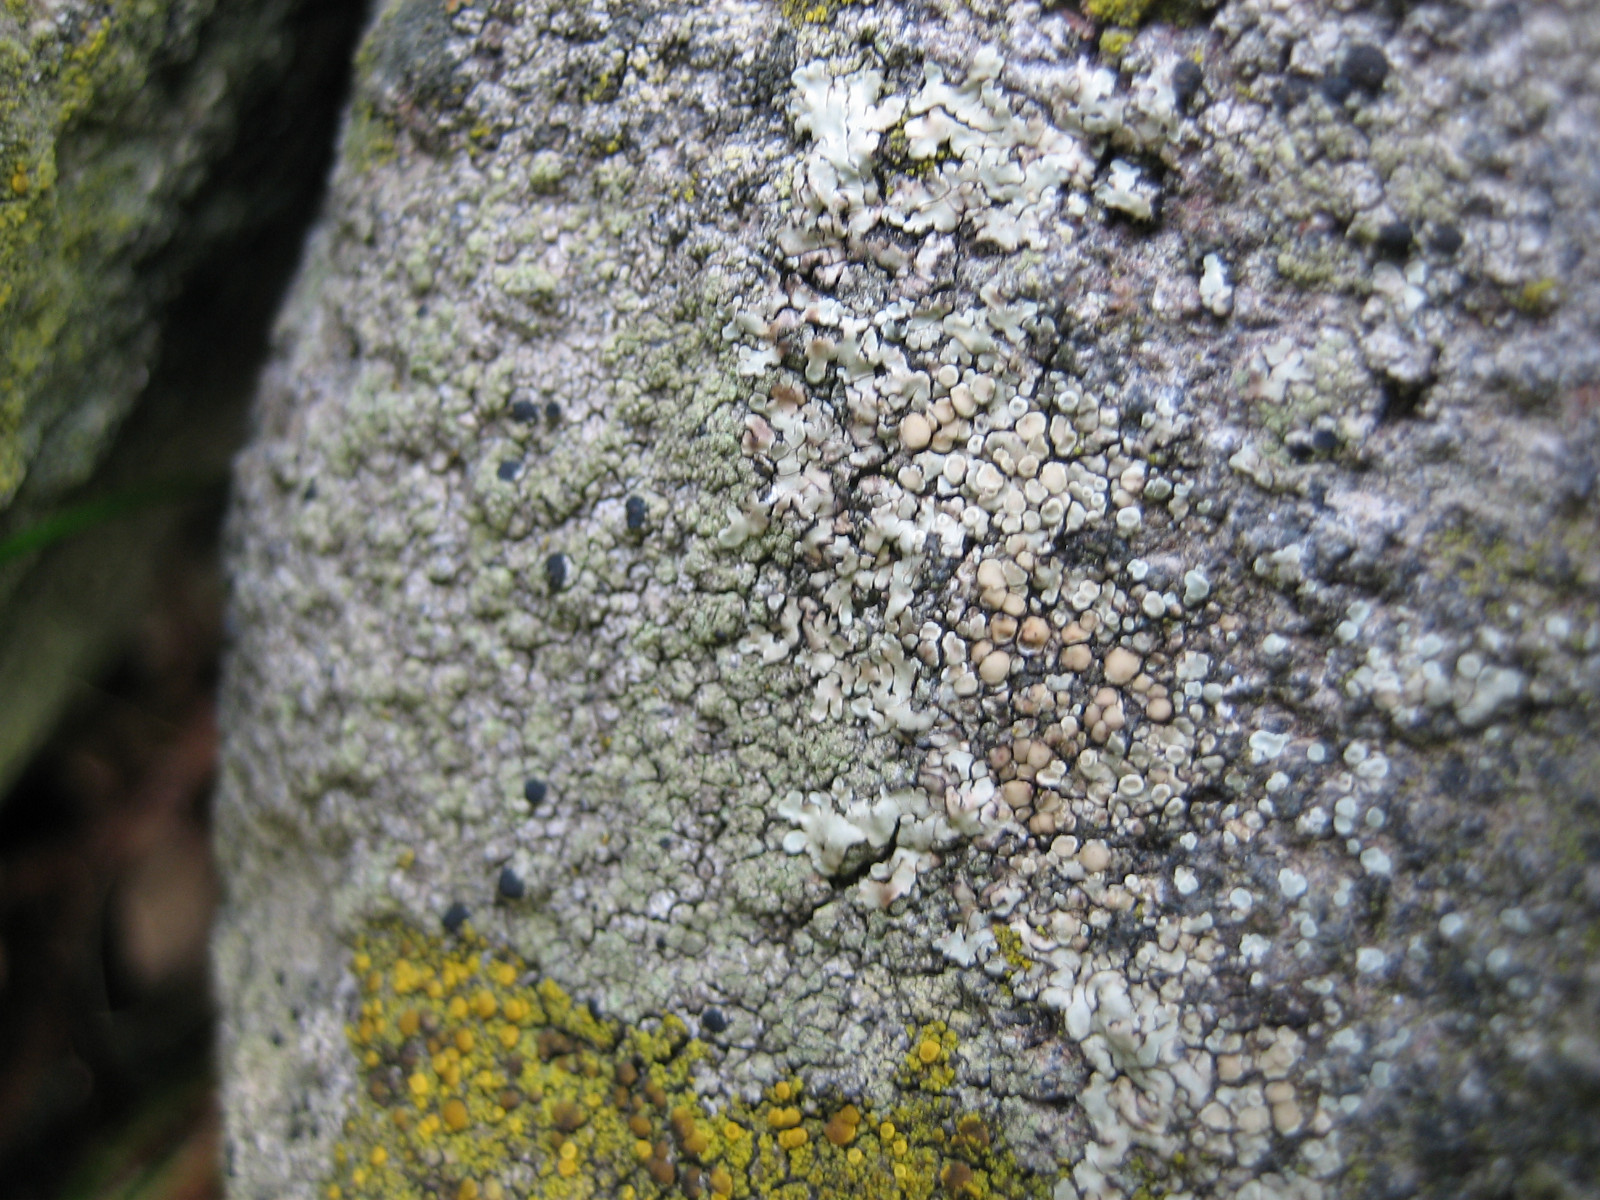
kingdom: Fungi
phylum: Ascomycota
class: Lecanoromycetes
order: Lecanorales
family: Lecanoraceae
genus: Protoparmeliopsis
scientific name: Protoparmeliopsis muralis
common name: randfliget kantskivelav
